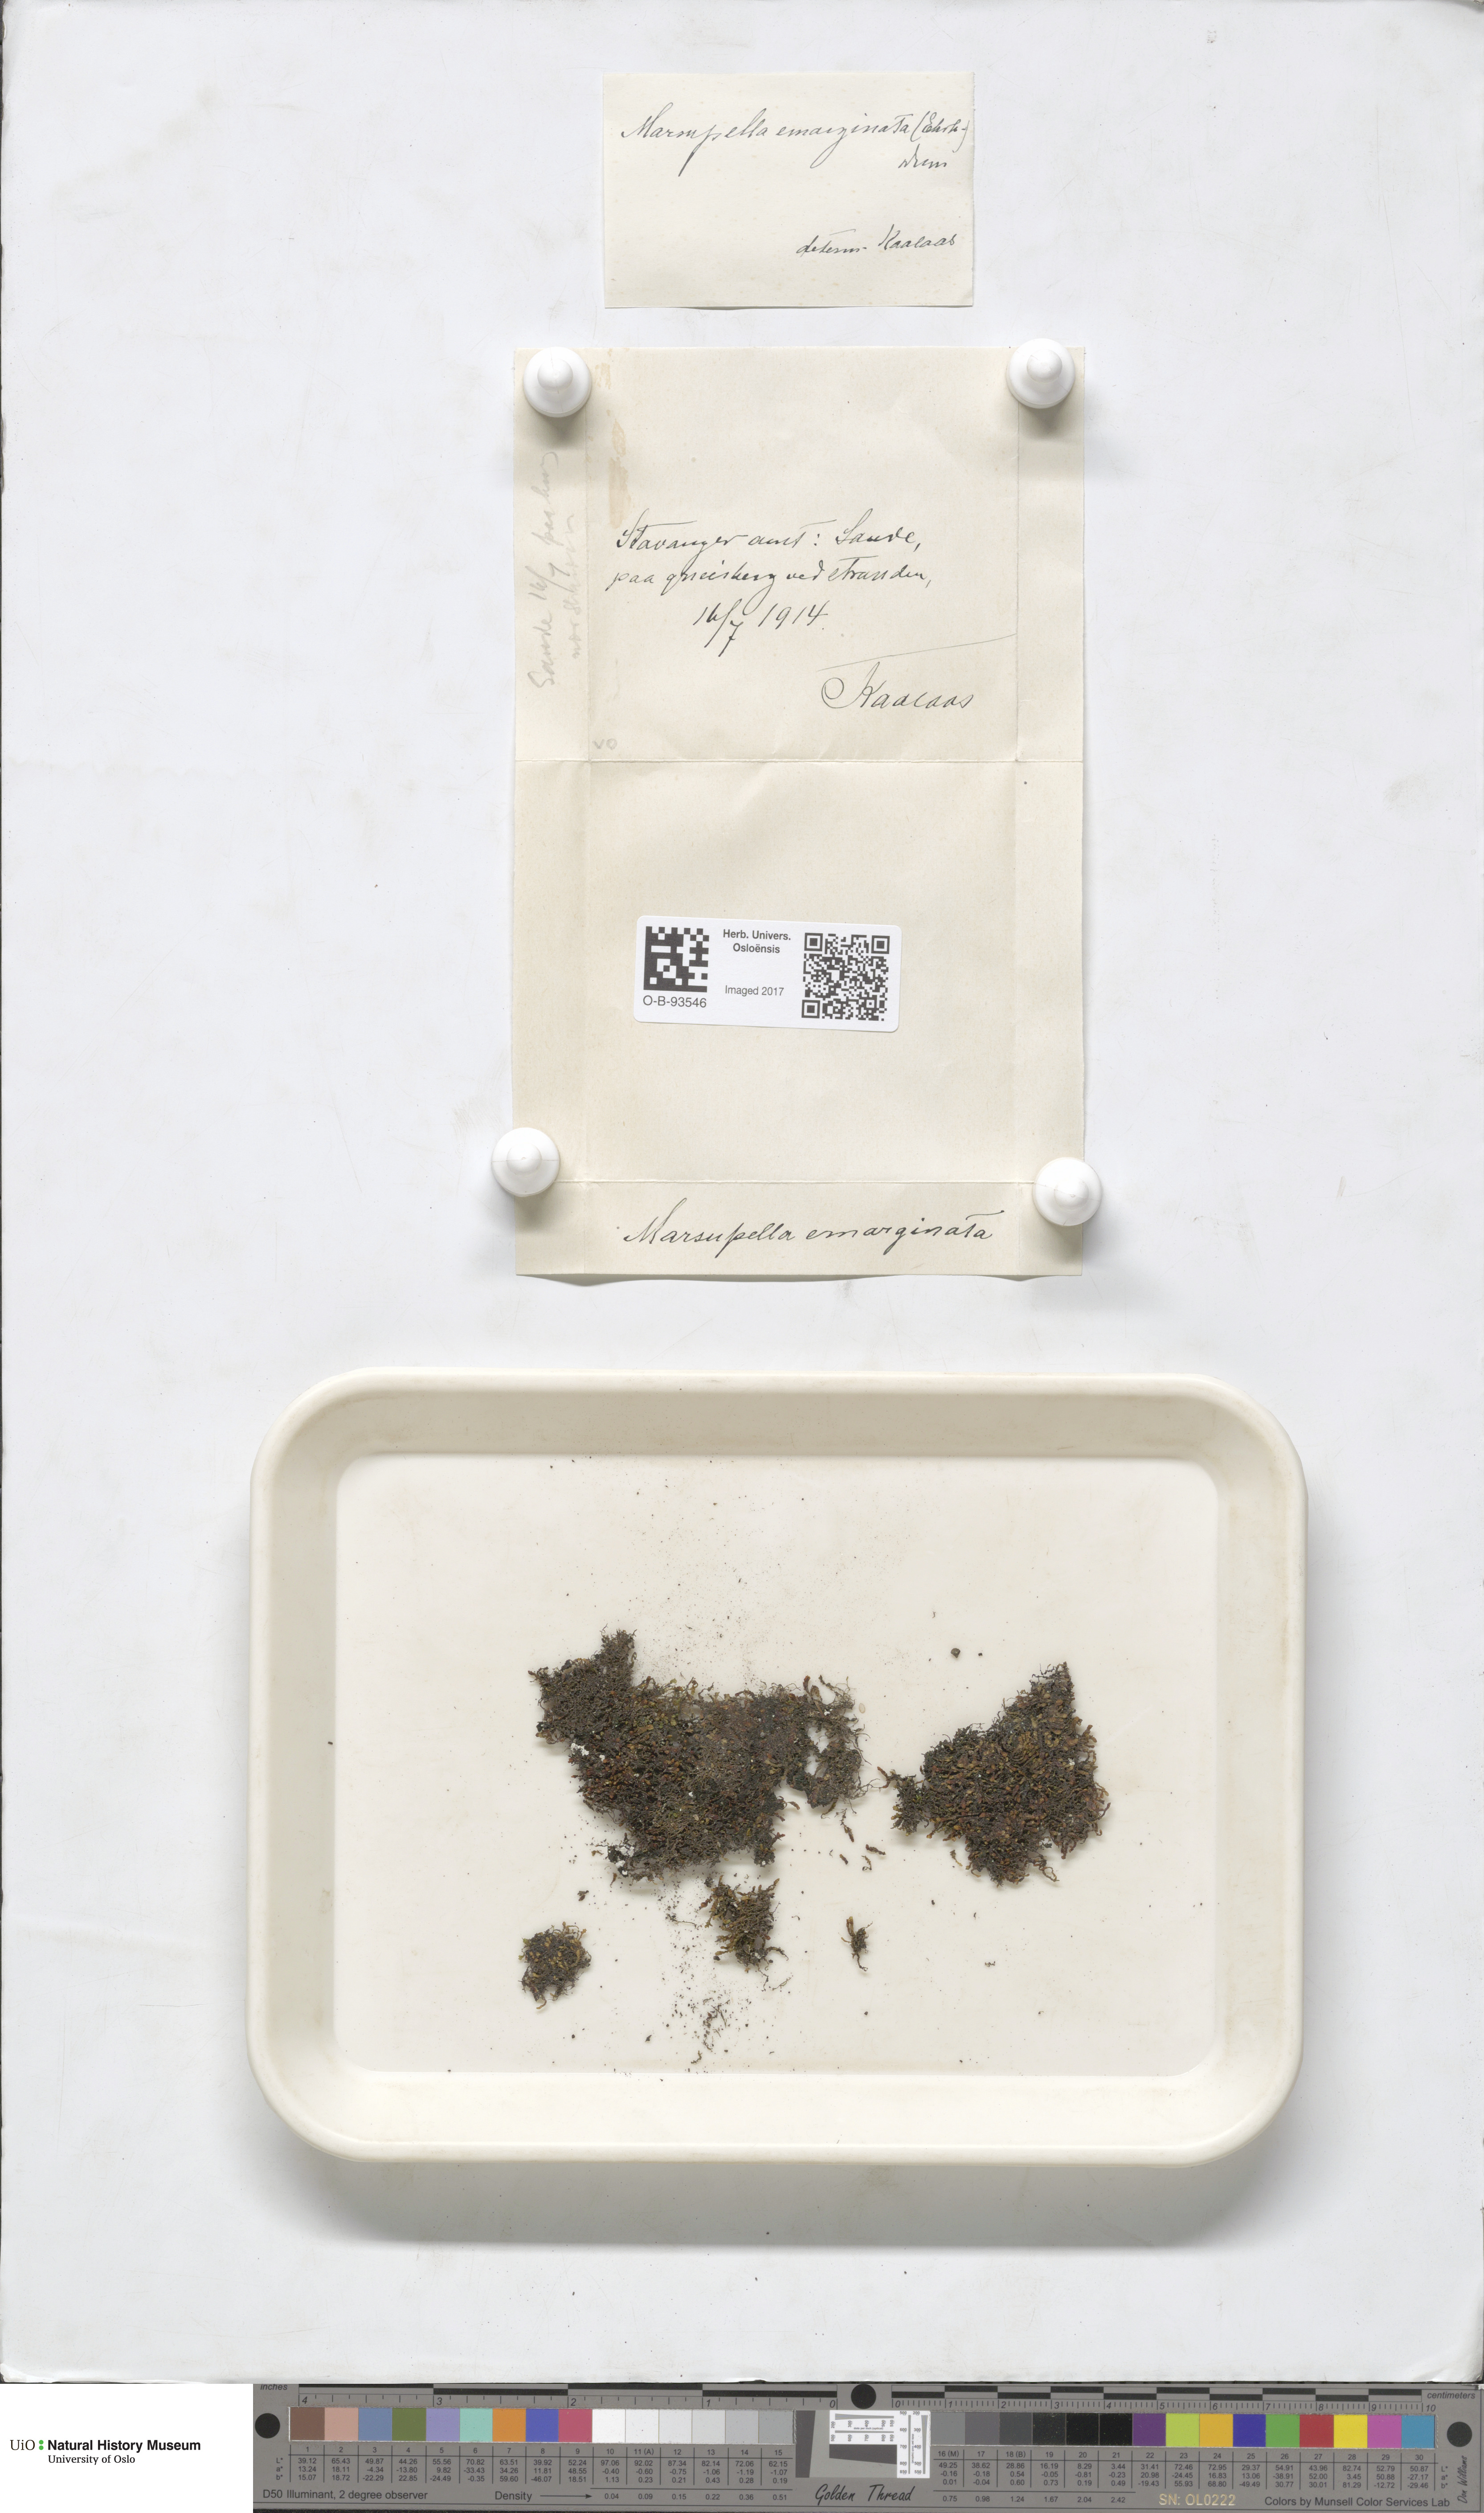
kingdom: Plantae
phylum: Marchantiophyta
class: Jungermanniopsida
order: Jungermanniales
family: Gymnomitriaceae
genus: Marsupella
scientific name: Marsupella emarginata
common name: Notched rustwort
